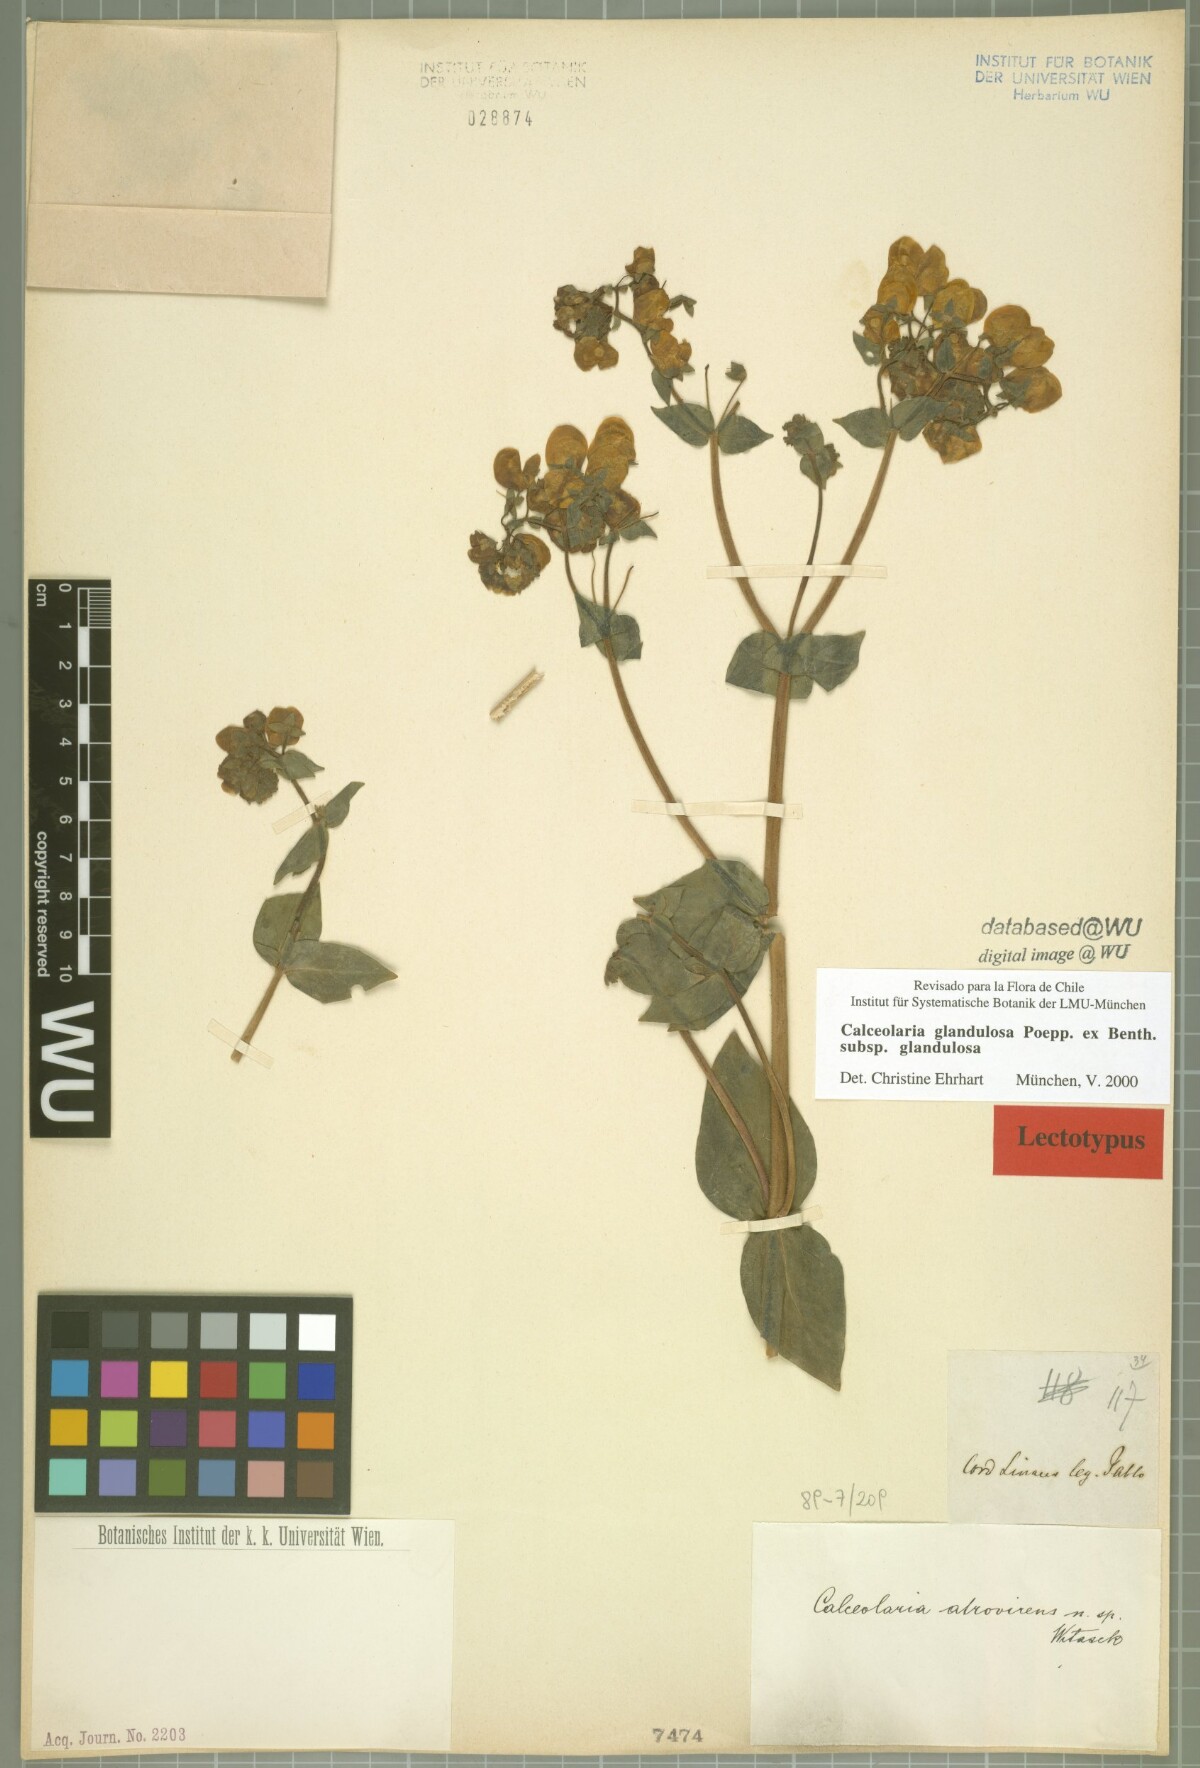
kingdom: Plantae
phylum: Tracheophyta
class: Magnoliopsida
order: Lamiales
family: Calceolariaceae
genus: Calceolaria
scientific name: Calceolaria glandulosa
